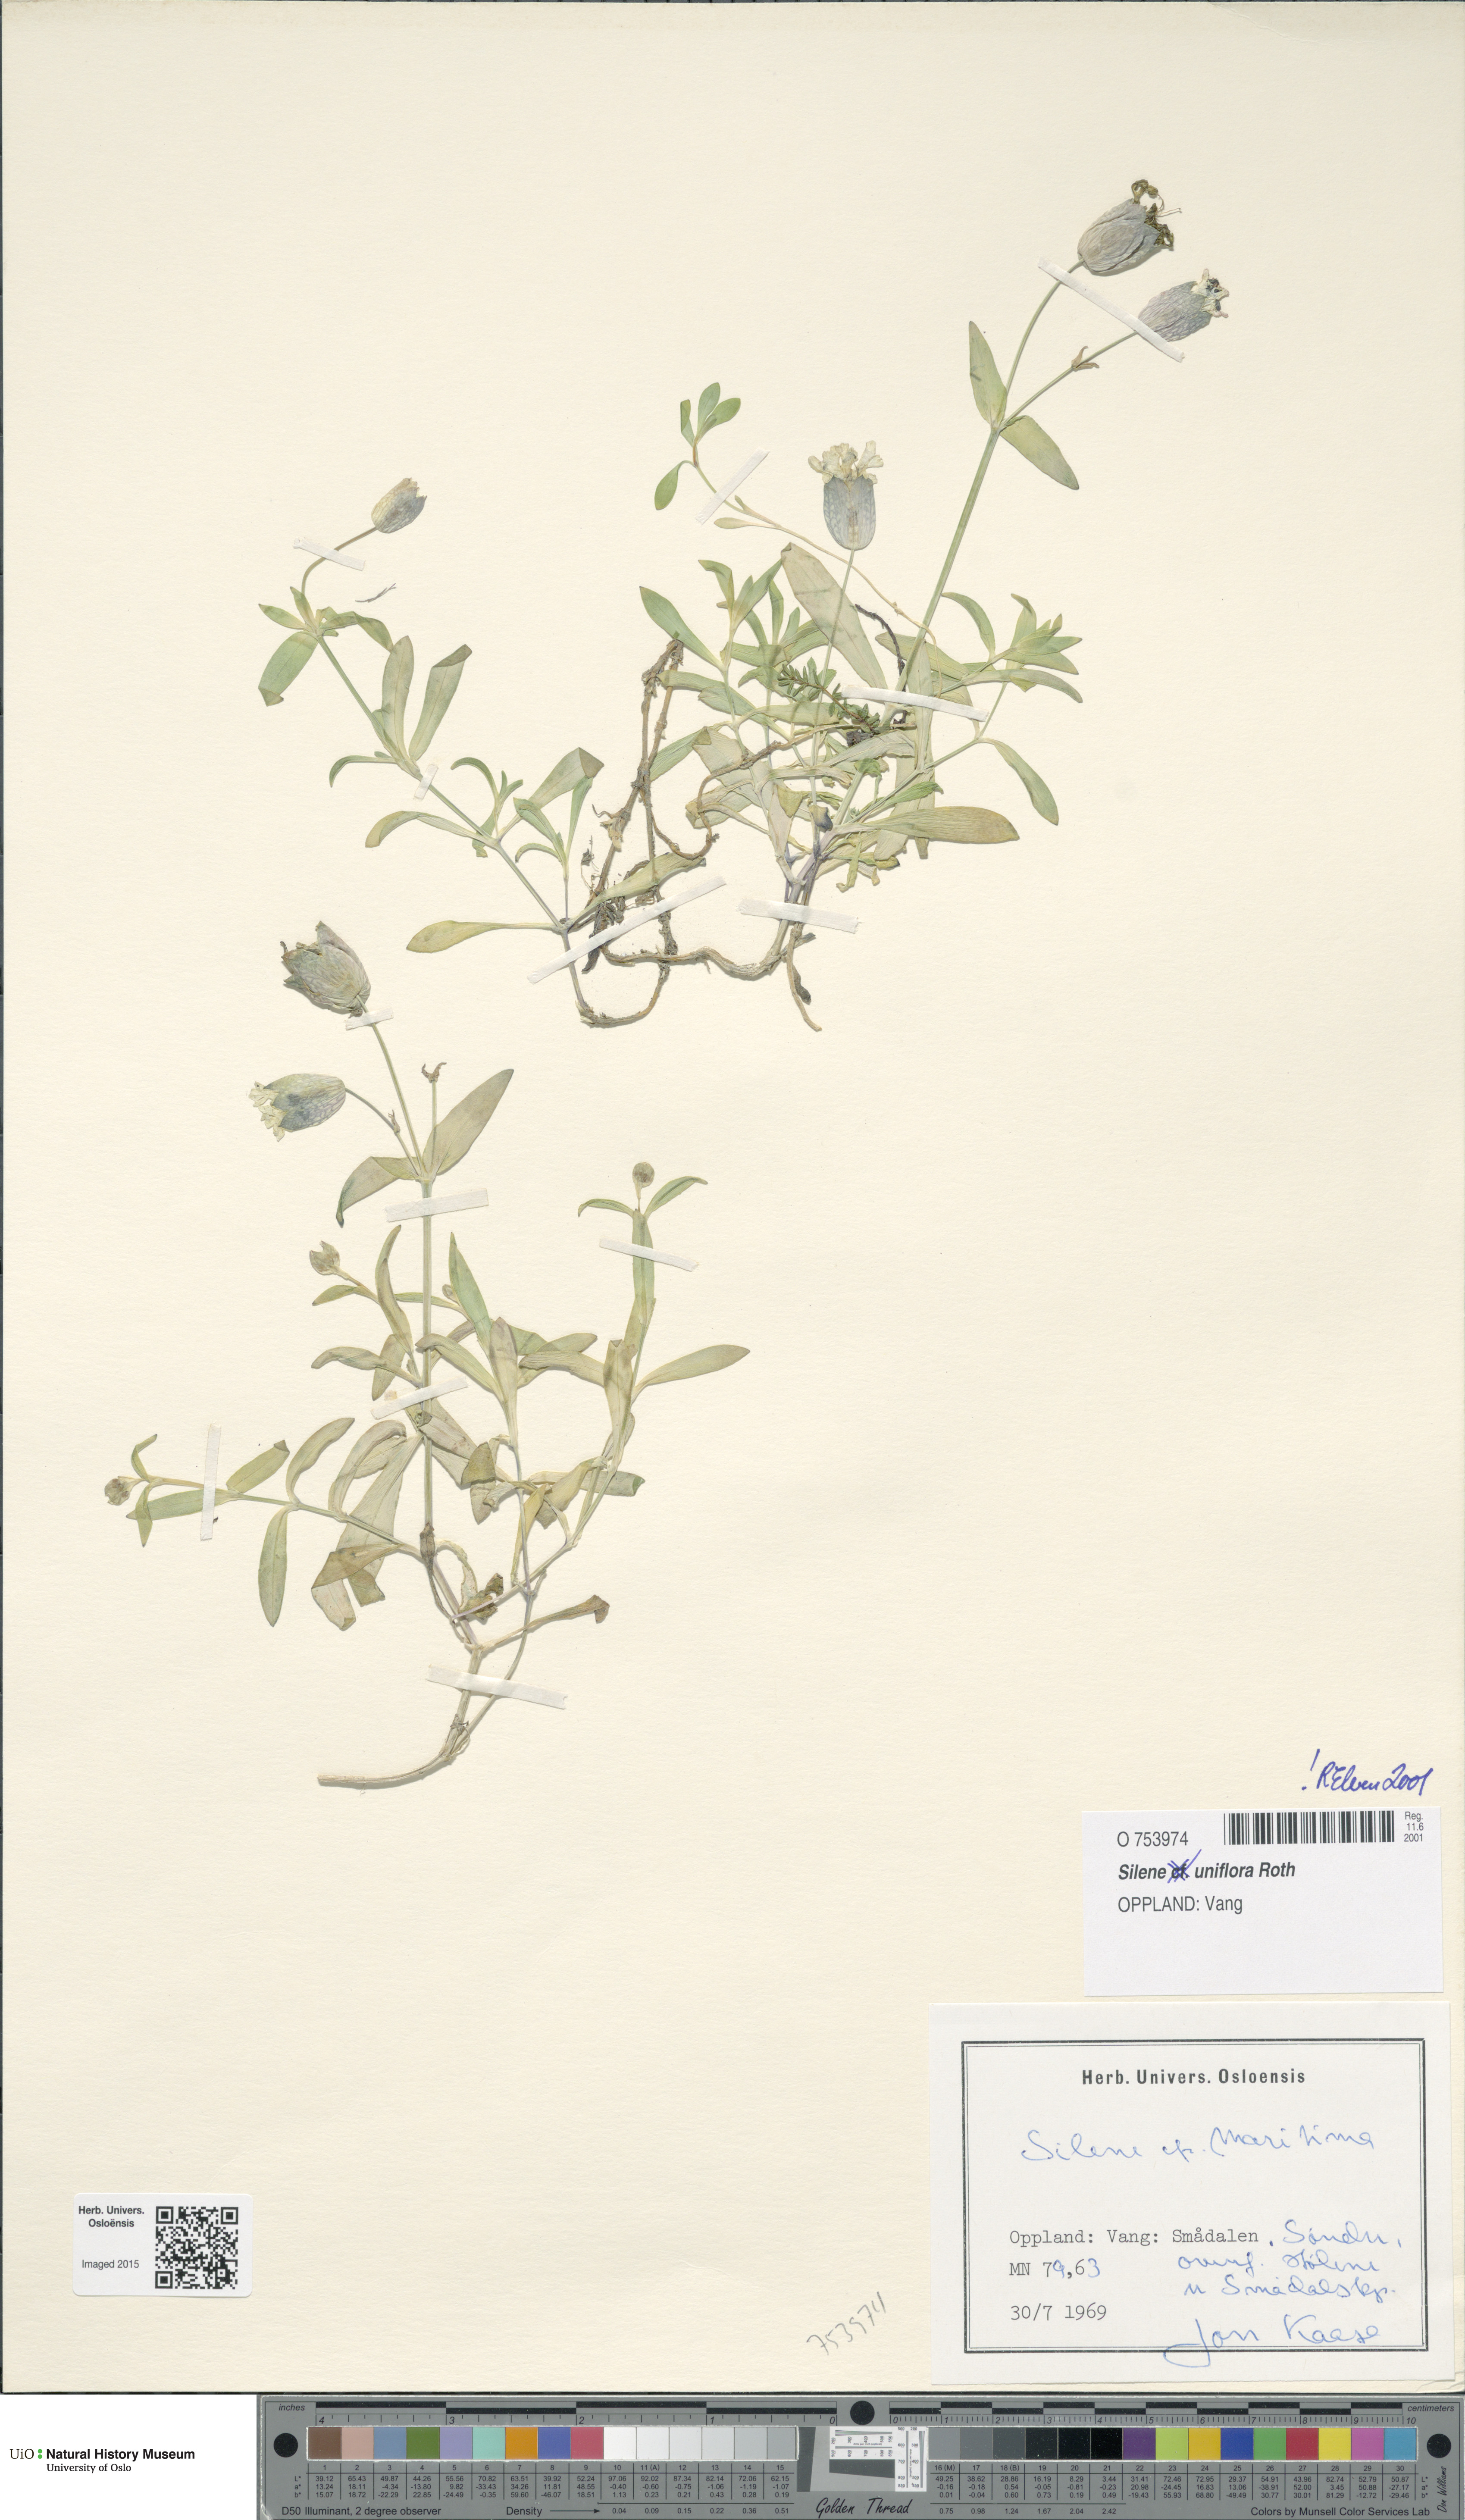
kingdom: Plantae
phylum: Tracheophyta
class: Magnoliopsida
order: Caryophyllales
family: Caryophyllaceae
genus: Silene
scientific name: Silene uniflora
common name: Sea campion
